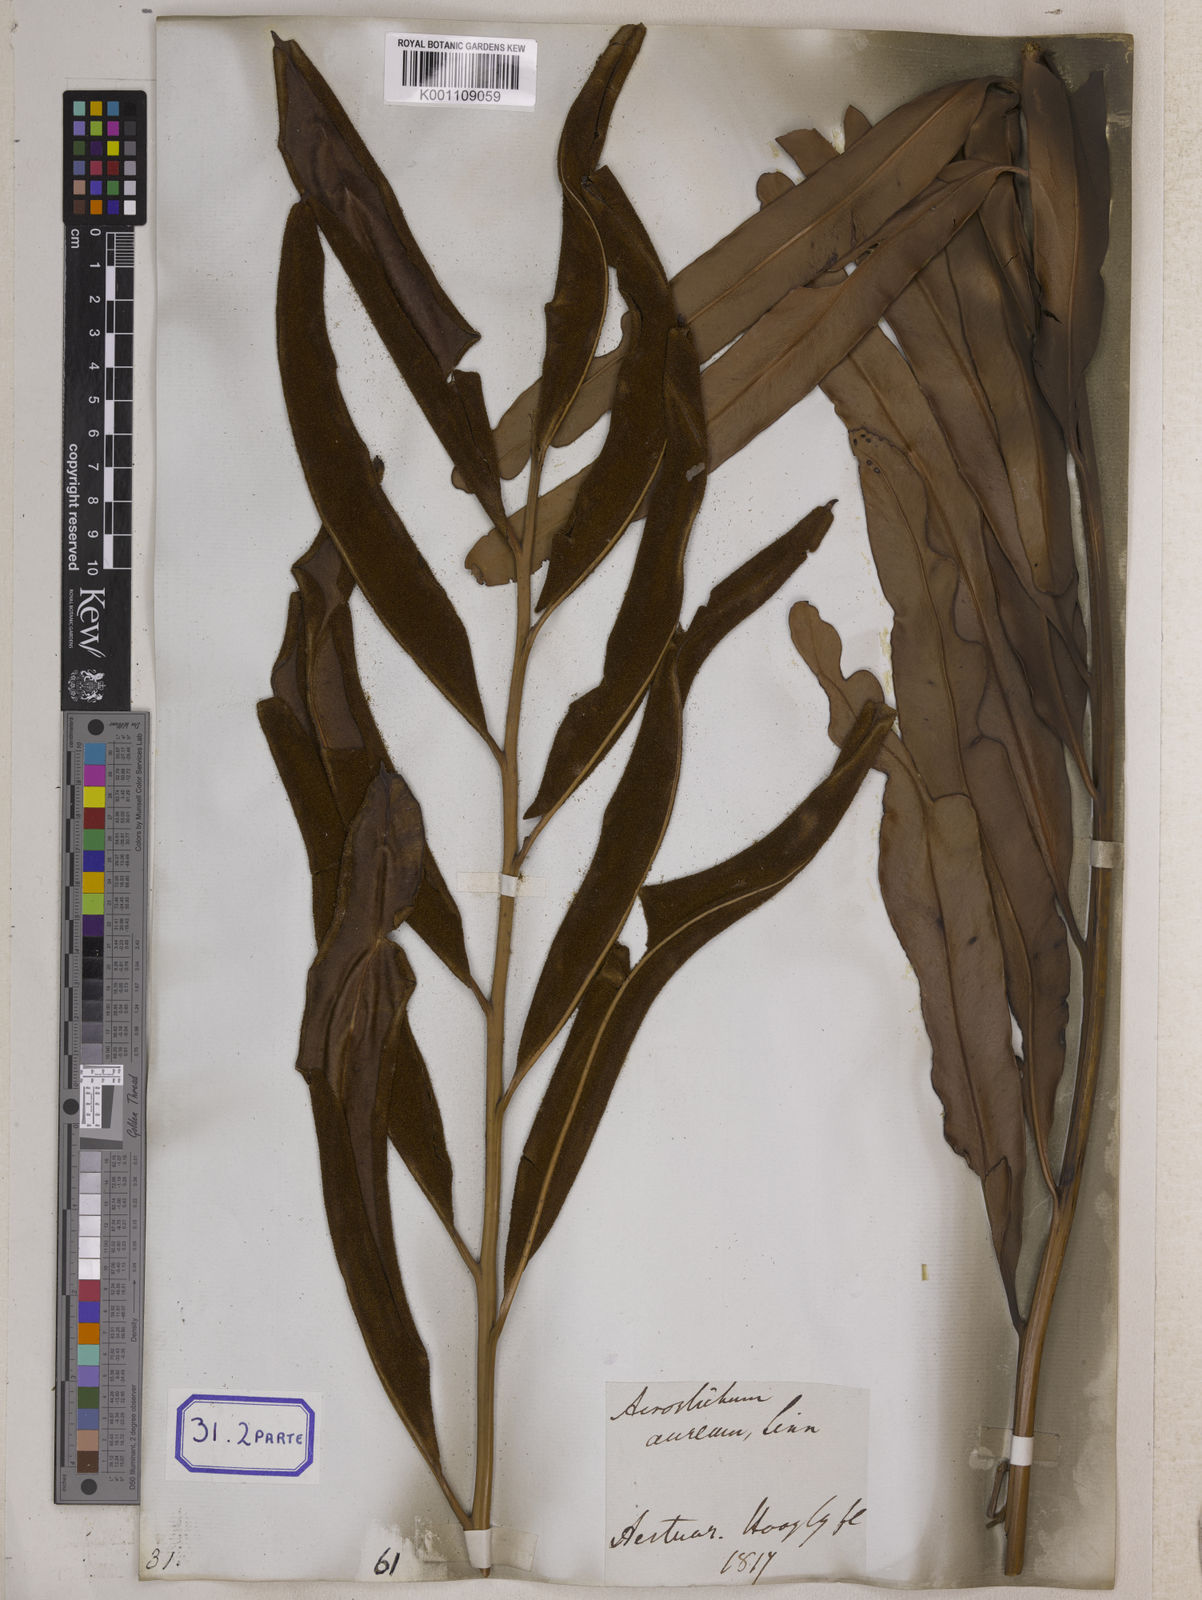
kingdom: Plantae
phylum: Tracheophyta
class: Polypodiopsida
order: Polypodiales
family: Pteridaceae
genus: Acrostichum
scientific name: Acrostichum aureum
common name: Leather fern
